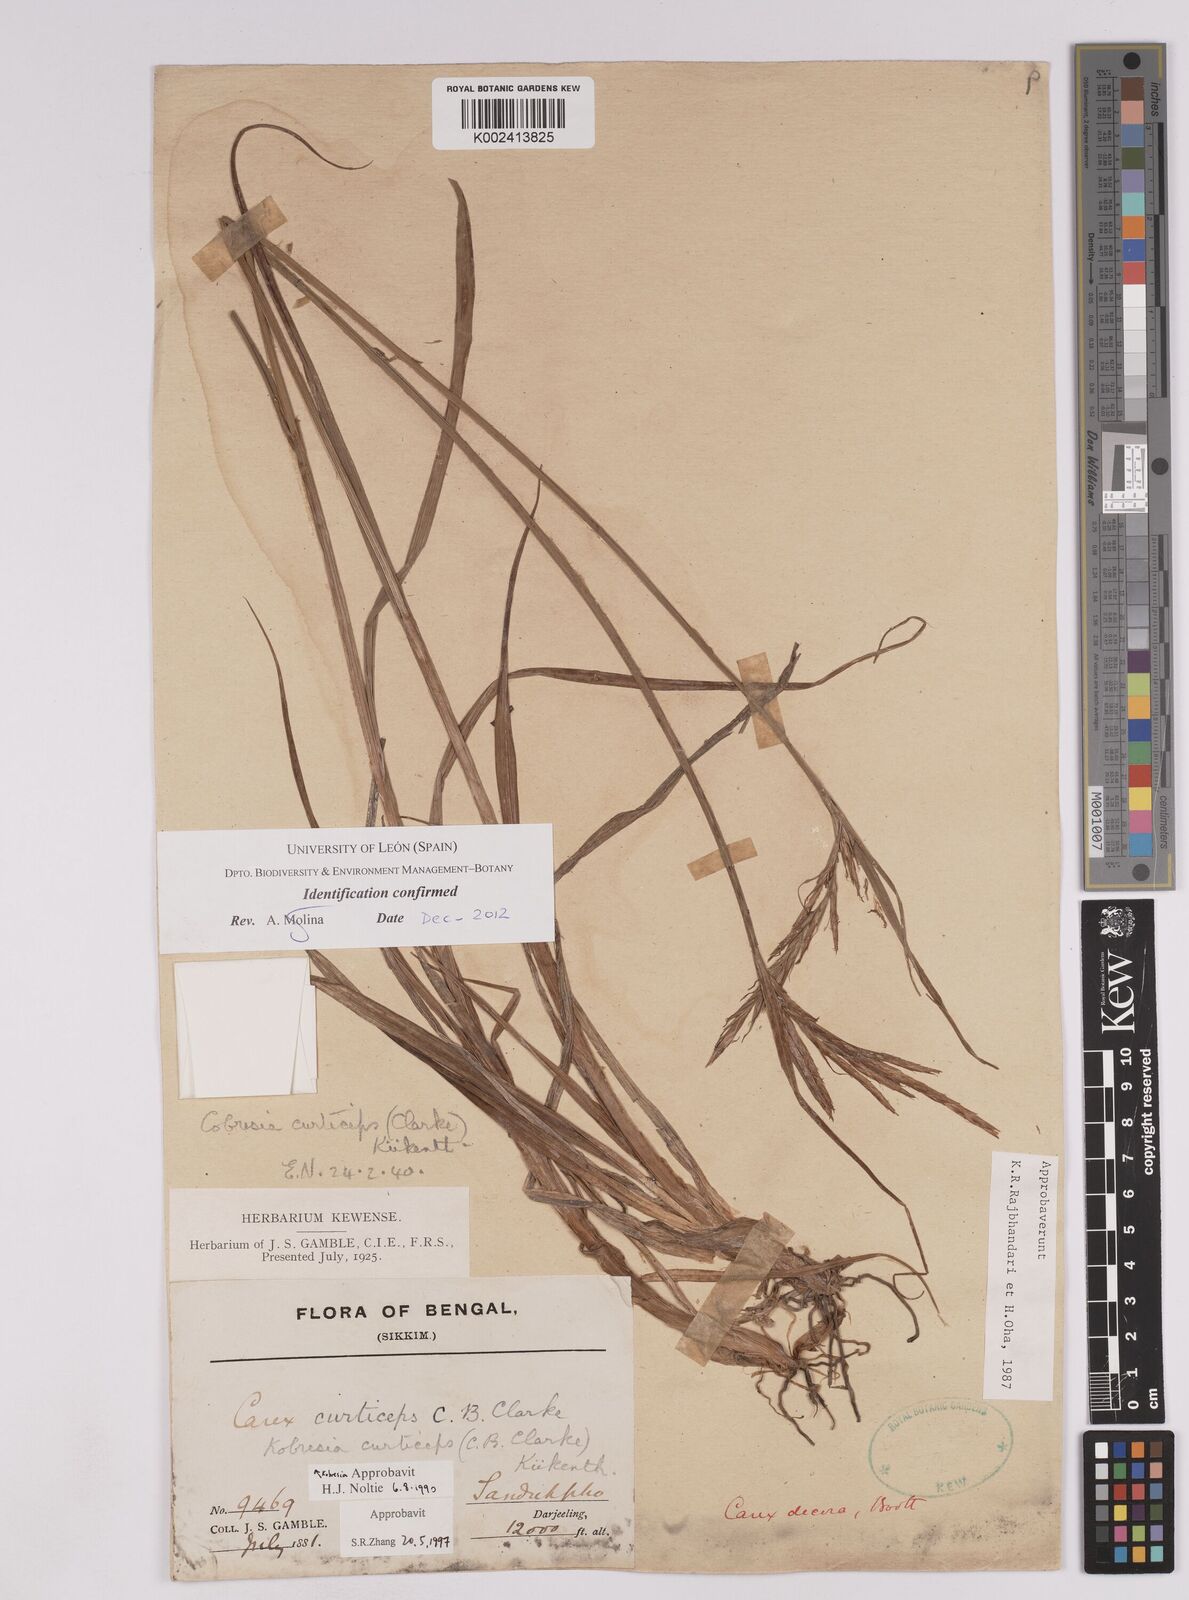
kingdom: Plantae
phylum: Tracheophyta
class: Liliopsida
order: Poales
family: Cyperaceae
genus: Carex
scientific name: Carex curticeps
